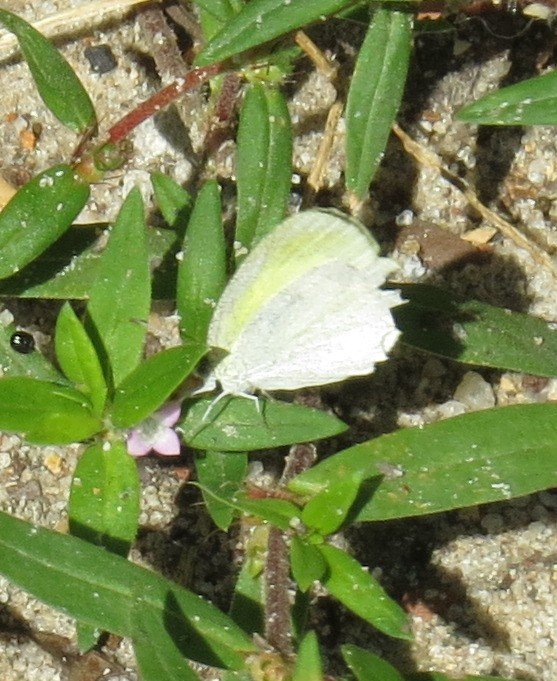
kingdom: Animalia
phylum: Arthropoda
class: Insecta
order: Lepidoptera
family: Pieridae
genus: Eurema
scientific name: Eurema daira
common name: Barred Yellow
